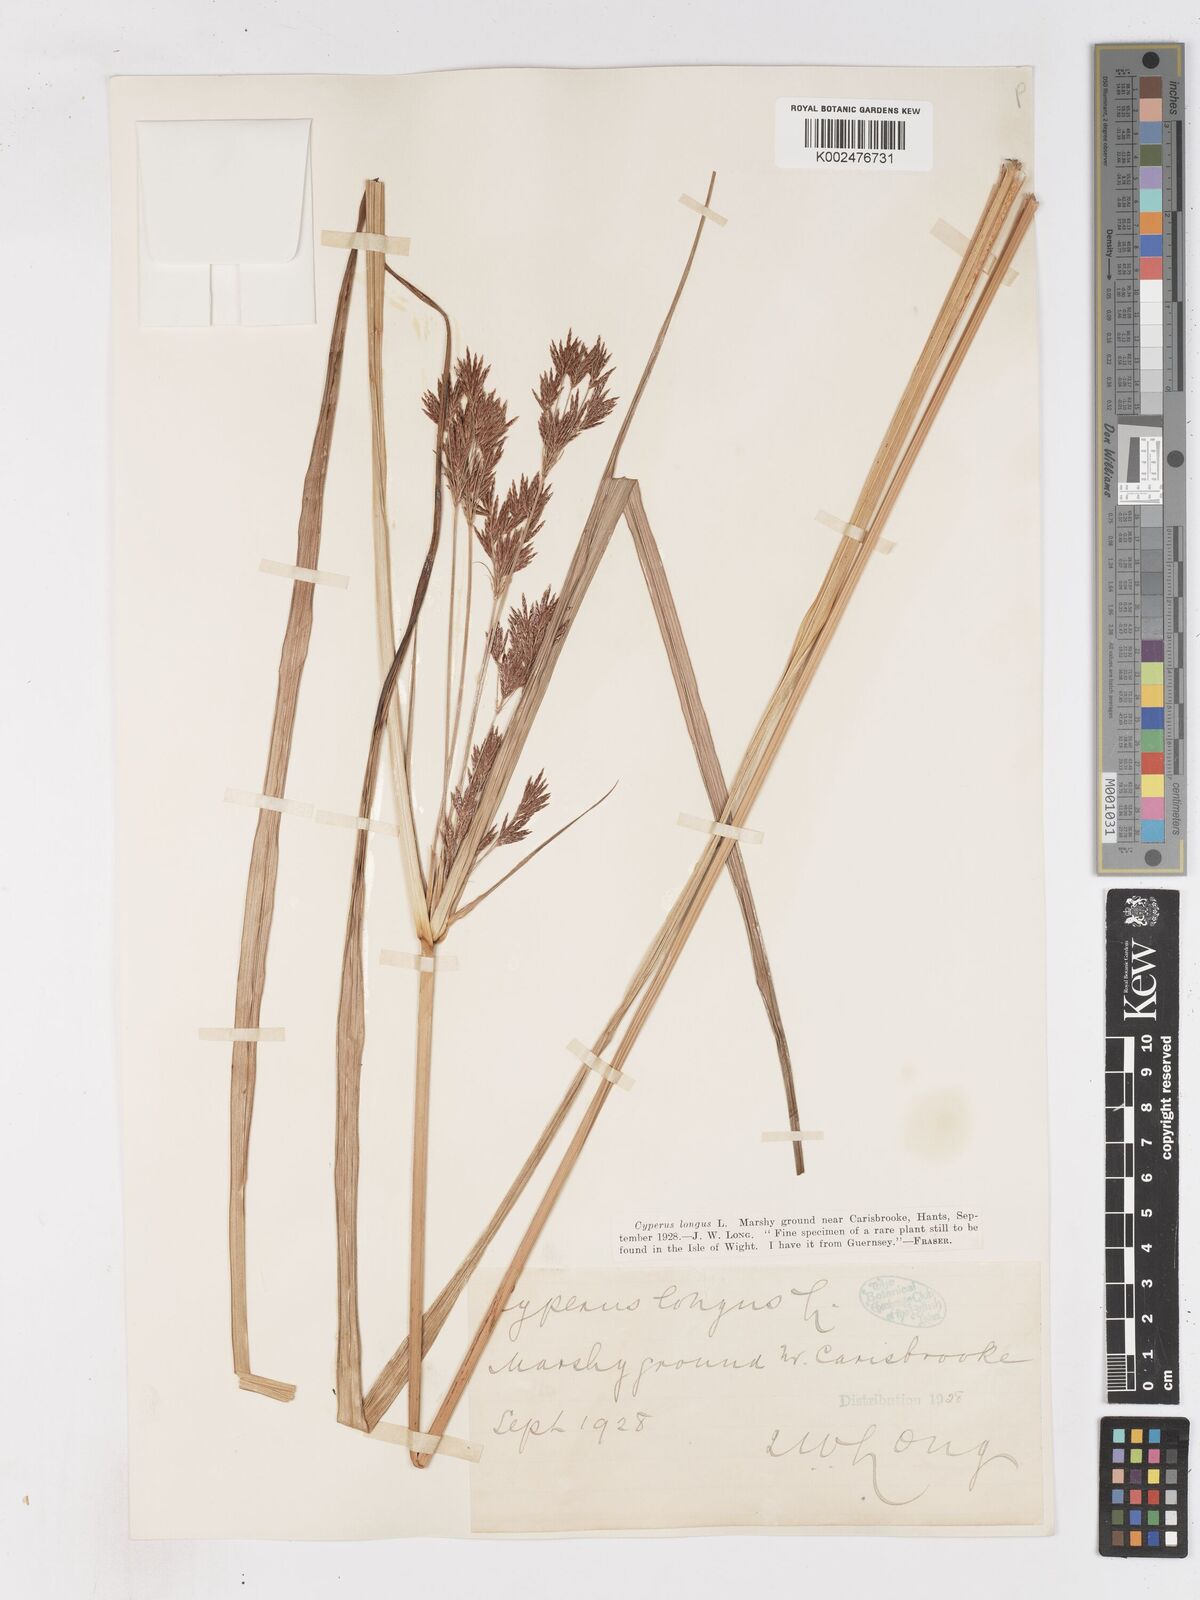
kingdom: Plantae
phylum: Tracheophyta
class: Liliopsida
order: Poales
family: Cyperaceae
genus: Cyperus
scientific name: Cyperus longus
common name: Galingale
